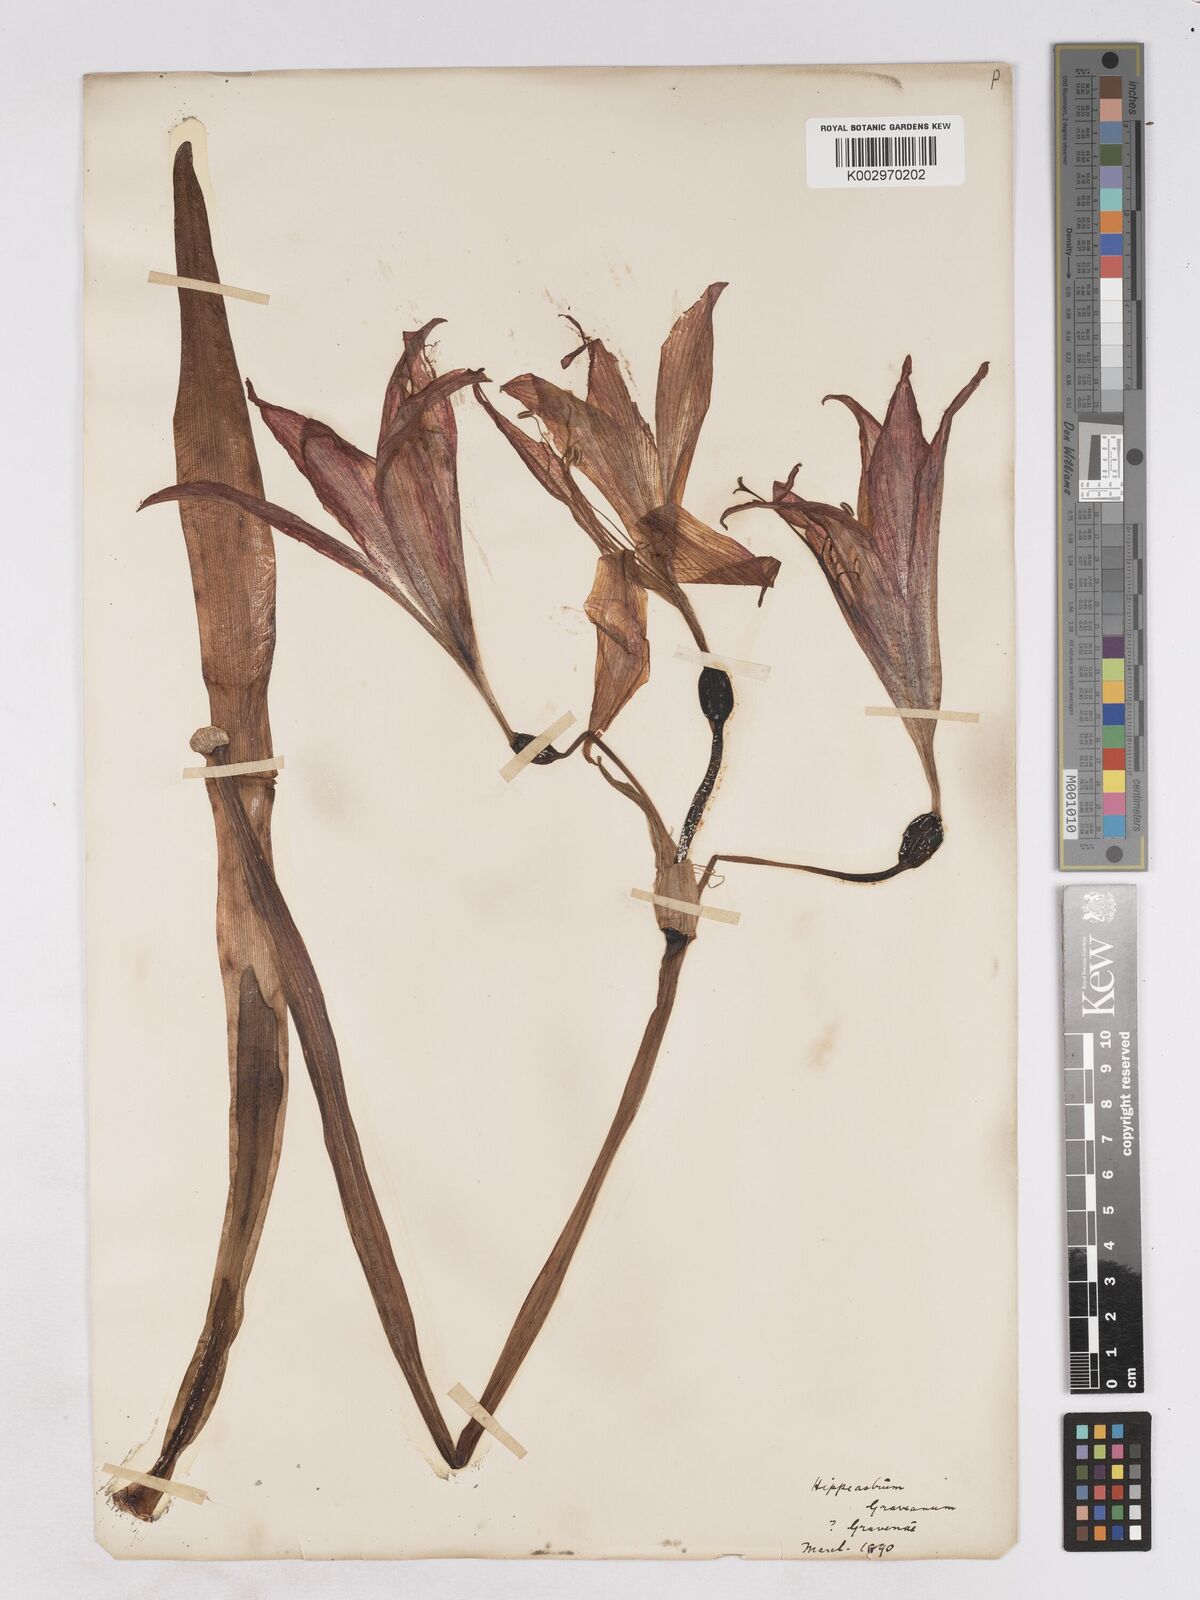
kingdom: Plantae
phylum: Tracheophyta
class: Liliopsida
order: Asparagales
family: Amaryllidaceae
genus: Hippeastrum
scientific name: Hippeastrum
